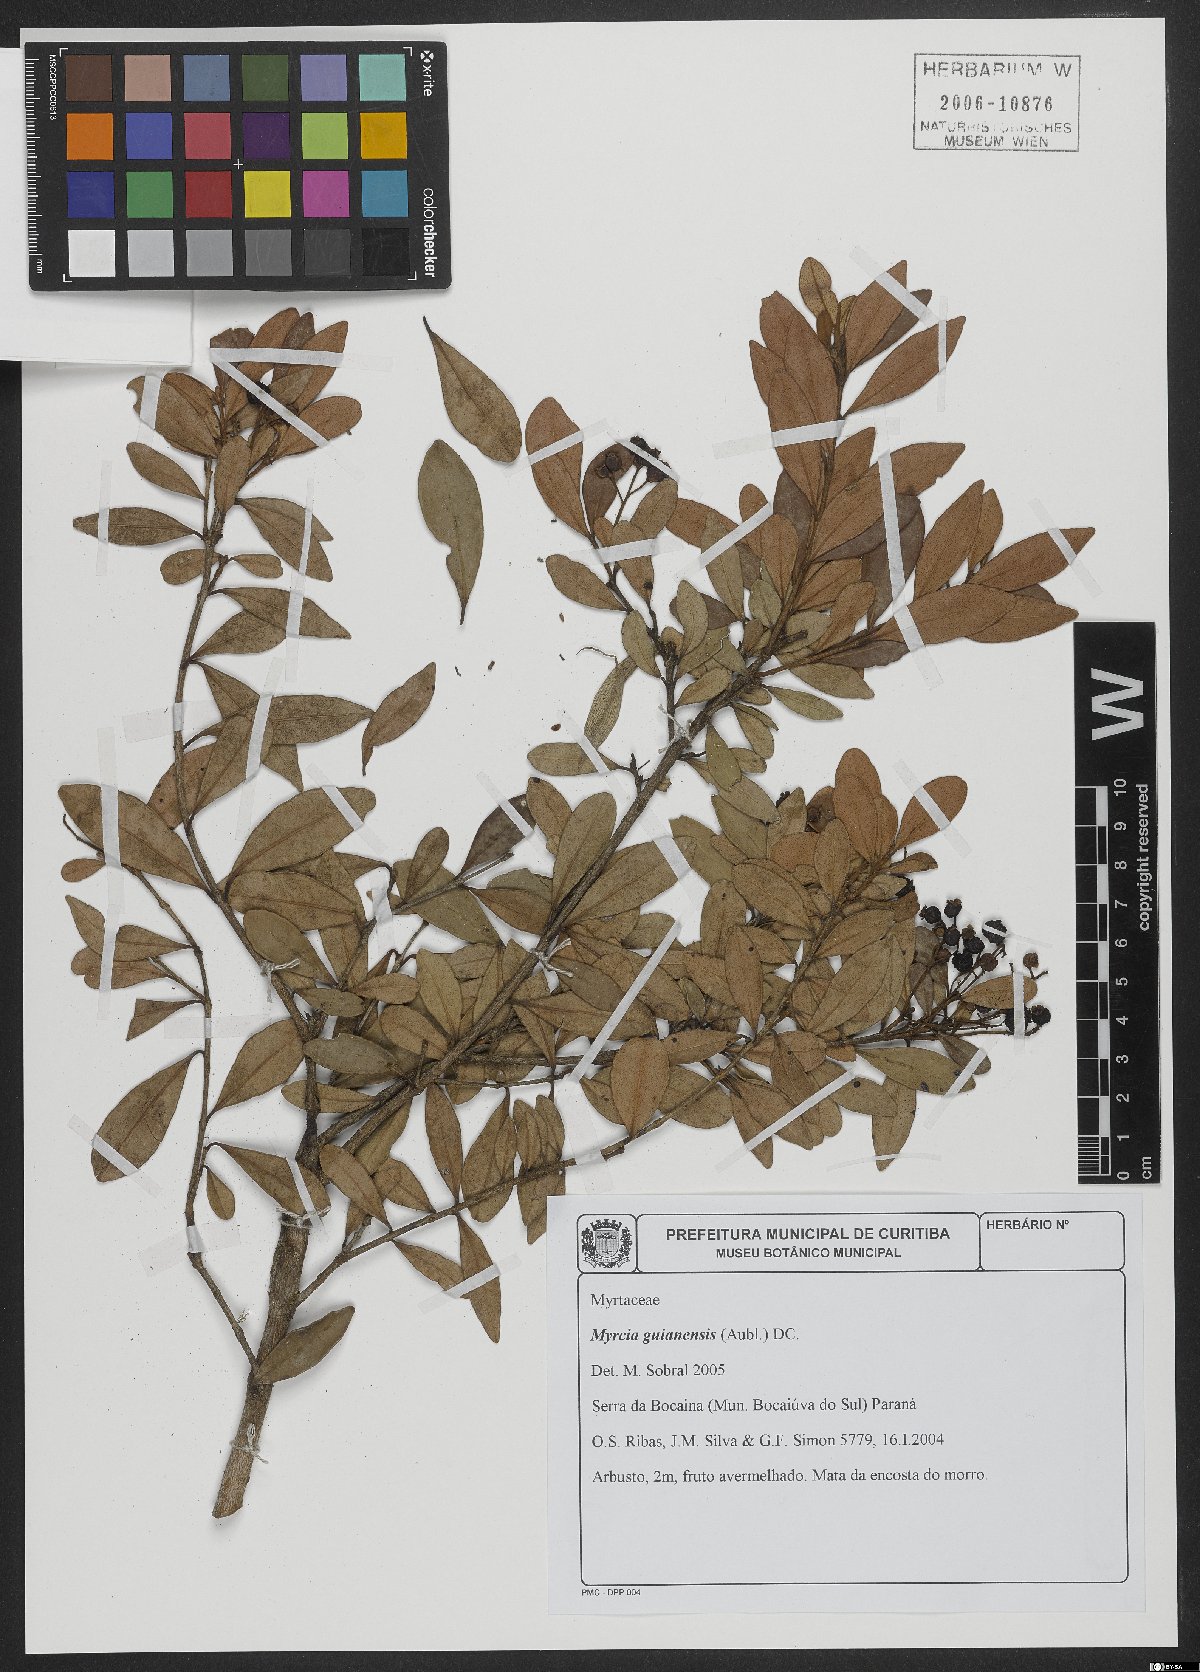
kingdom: Plantae
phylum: Tracheophyta
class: Magnoliopsida
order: Myrtales
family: Myrtaceae
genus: Myrcia
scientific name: Myrcia guianensis
